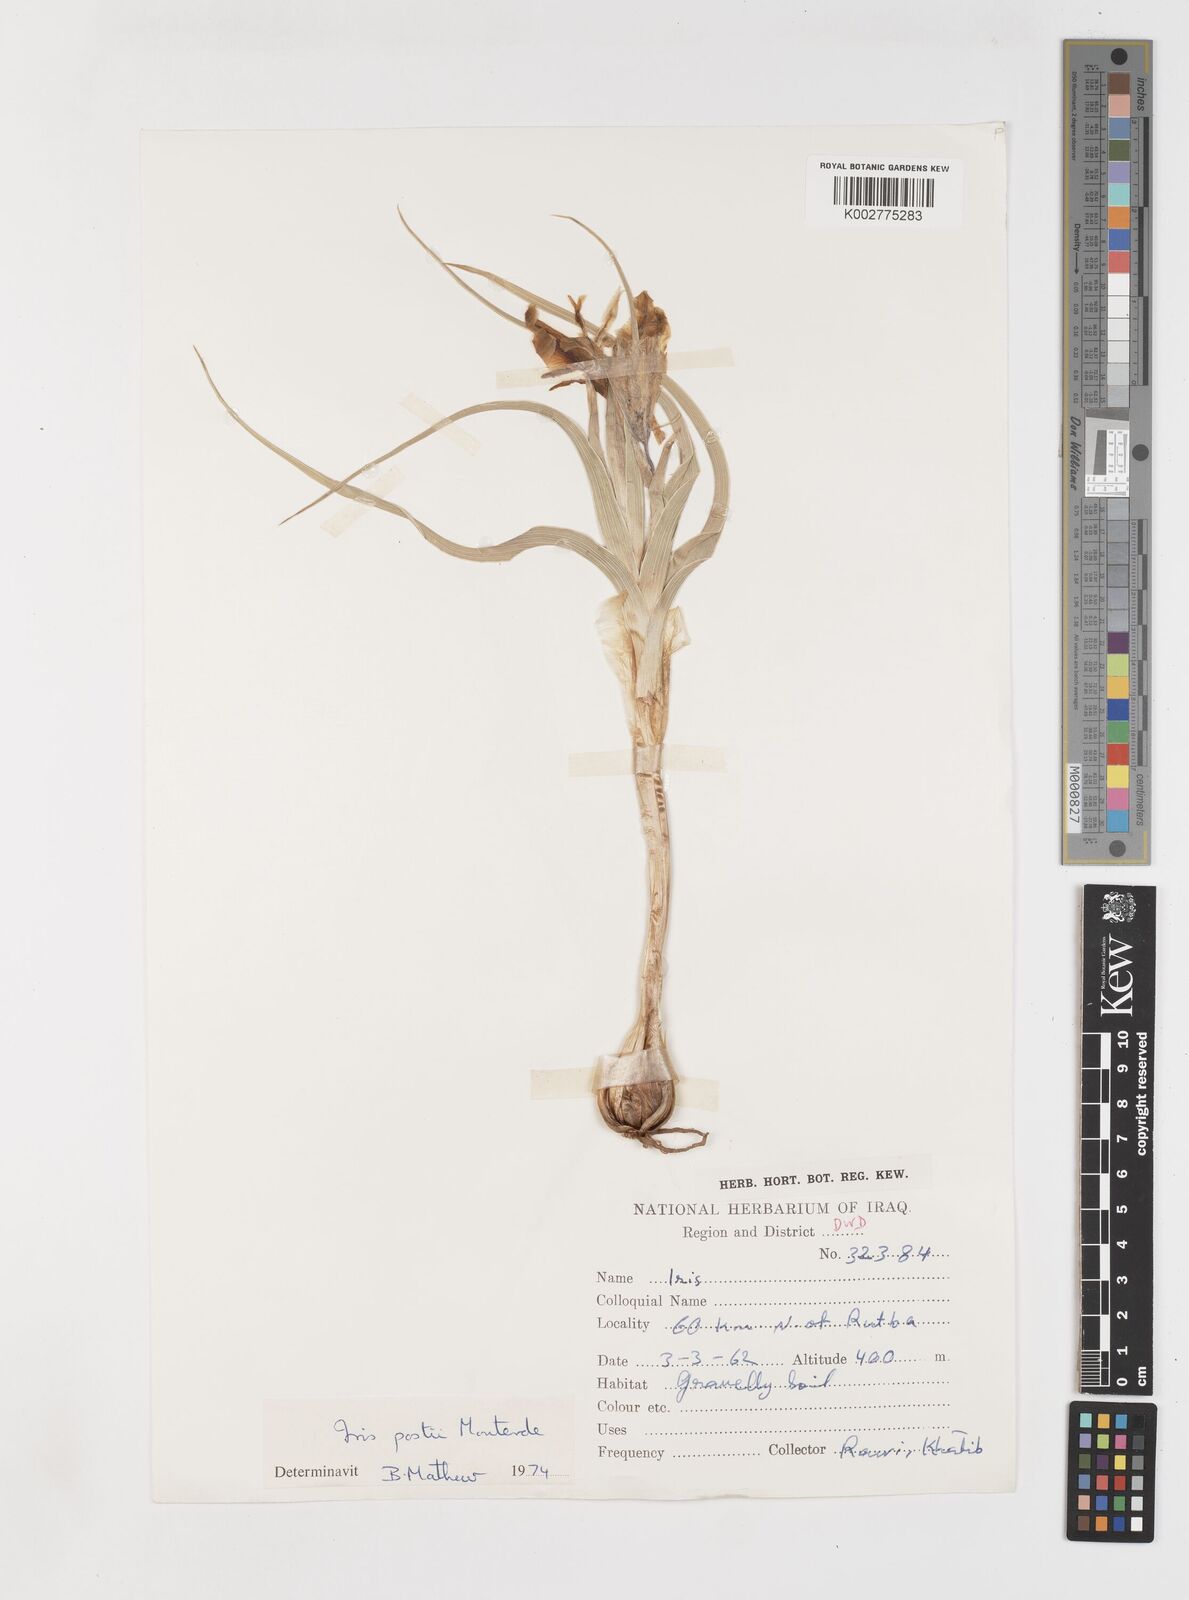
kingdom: Plantae
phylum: Tracheophyta
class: Liliopsida
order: Asparagales
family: Iridaceae
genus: Iris
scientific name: Iris postii
